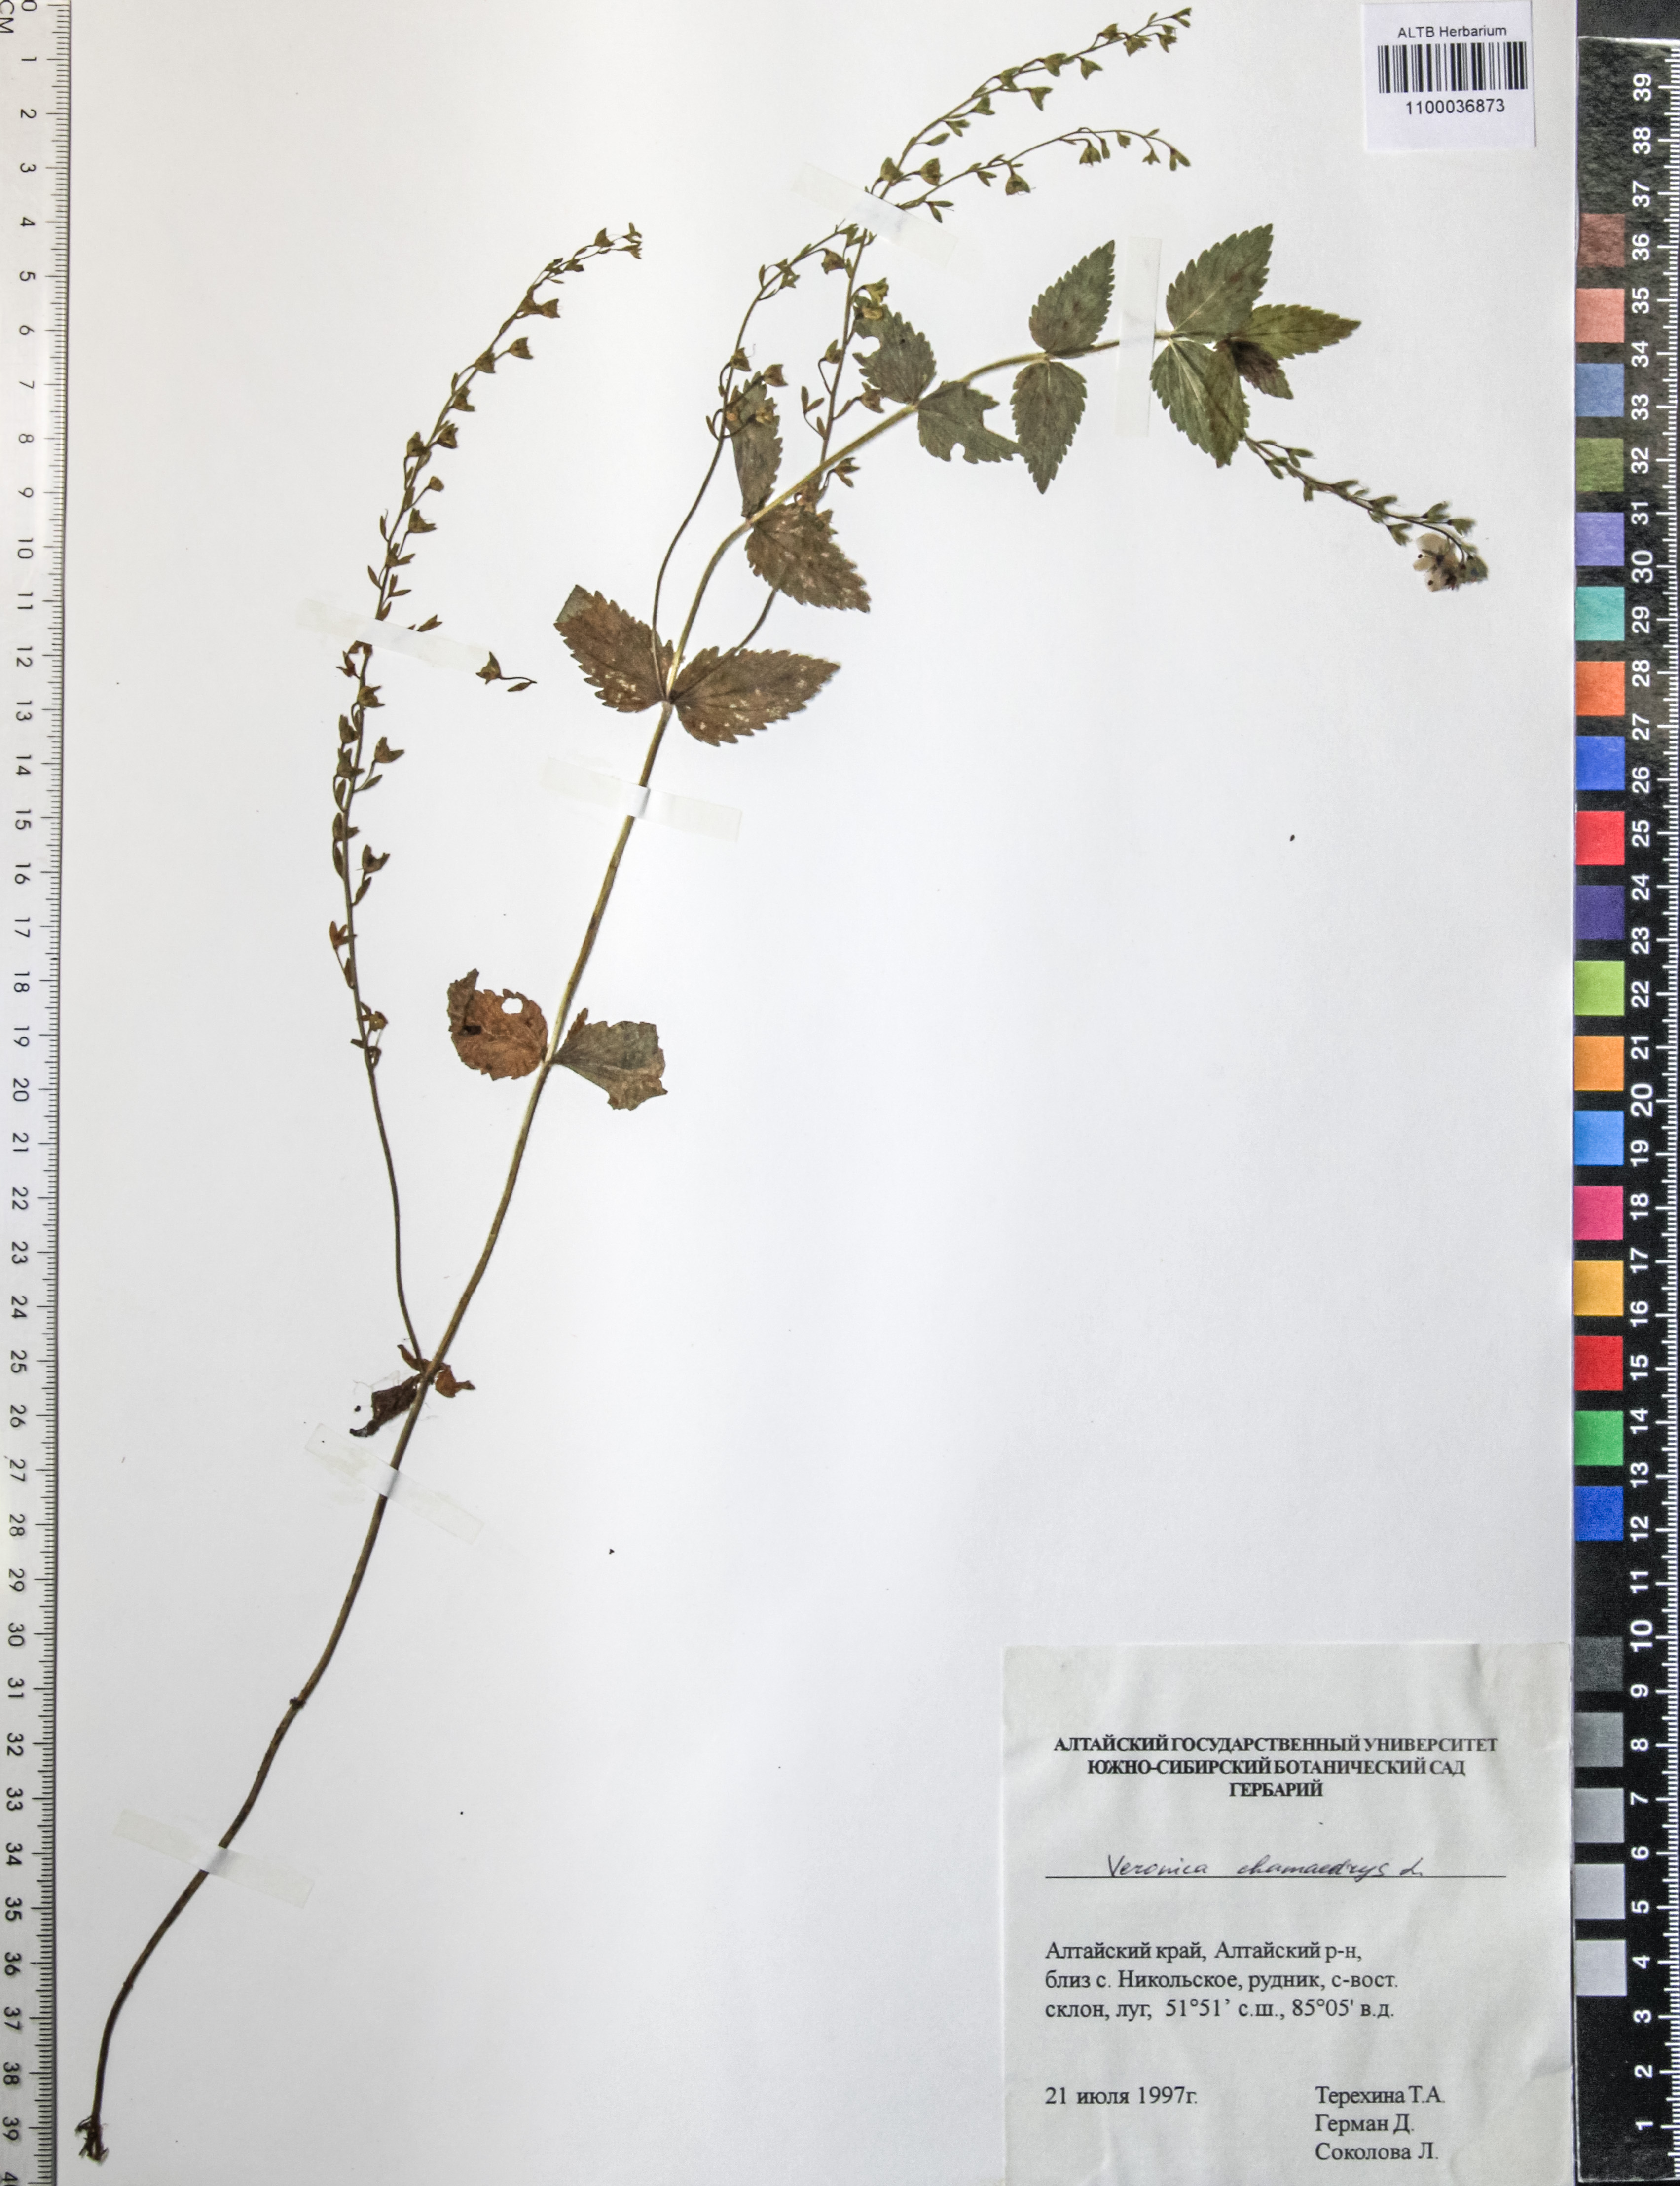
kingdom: Plantae
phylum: Tracheophyta
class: Magnoliopsida
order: Lamiales
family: Plantaginaceae
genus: Veronica
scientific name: Veronica chamaedrys
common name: Germander speedwell
